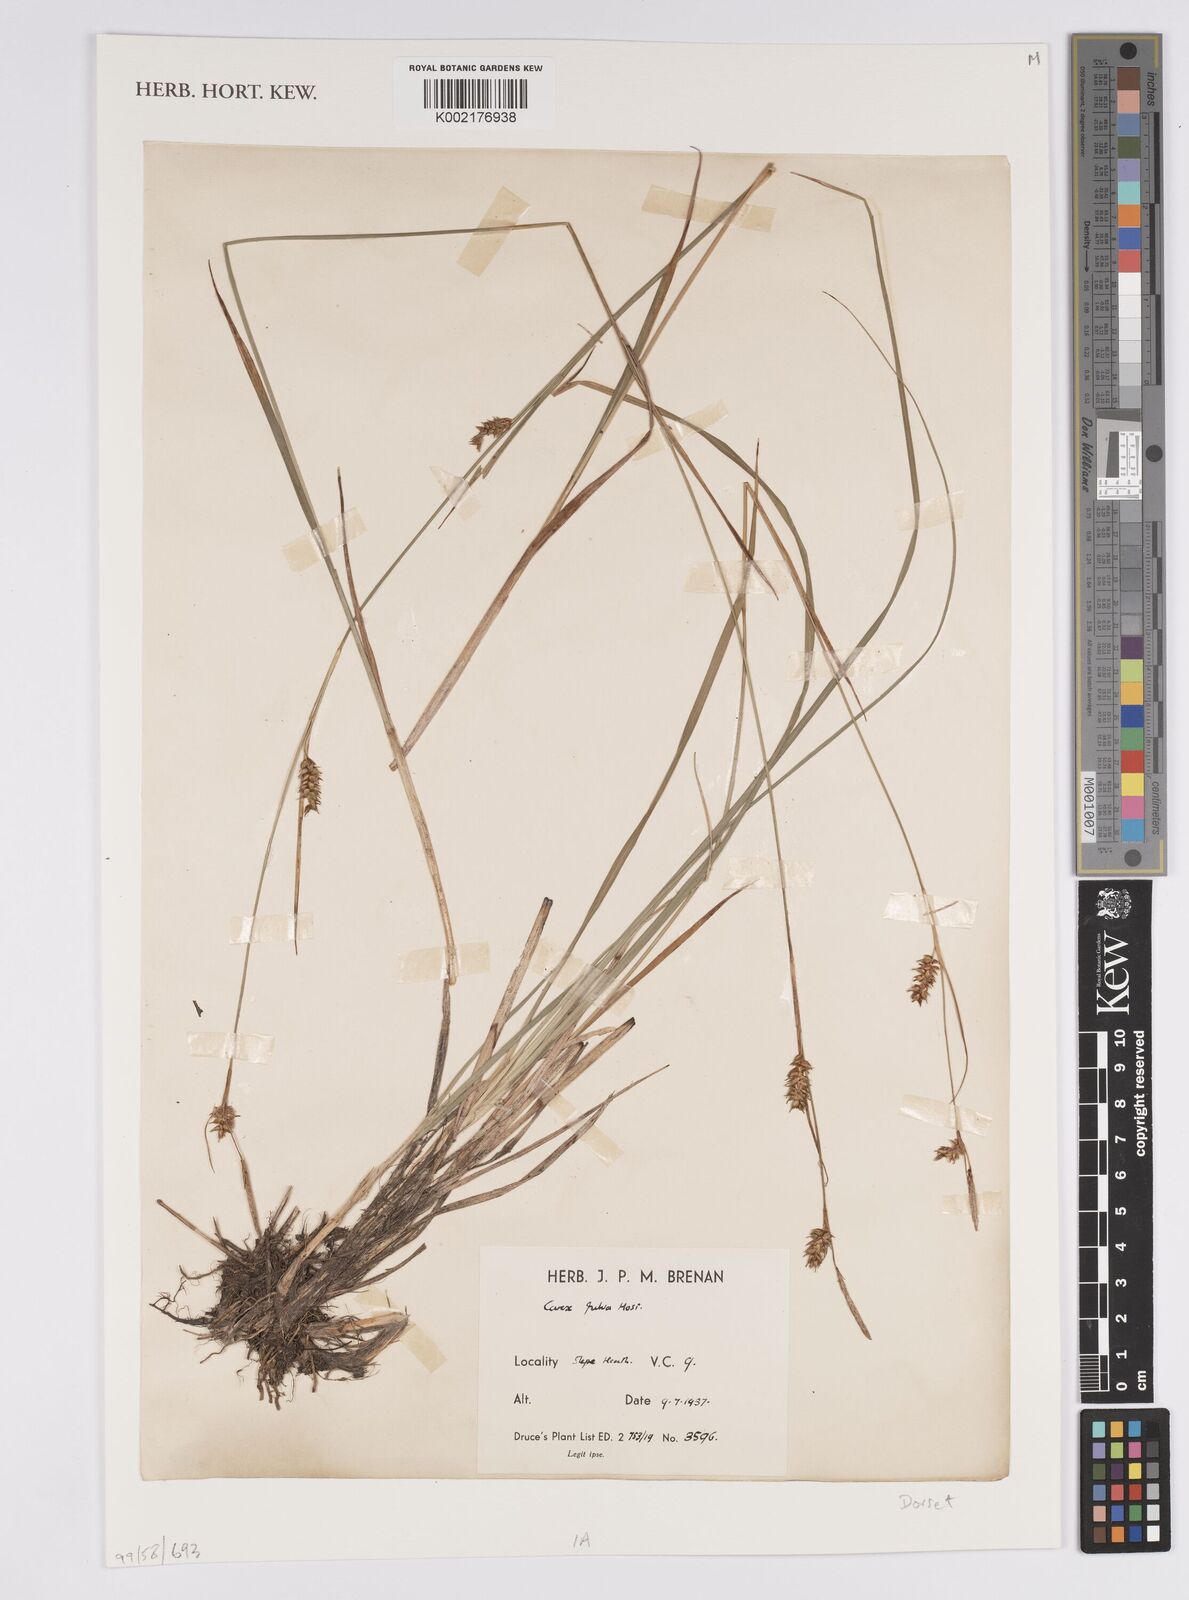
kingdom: Plantae
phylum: Tracheophyta
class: Liliopsida
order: Poales
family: Cyperaceae
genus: Carex
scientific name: Carex hostiana
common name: Tawny sedge
